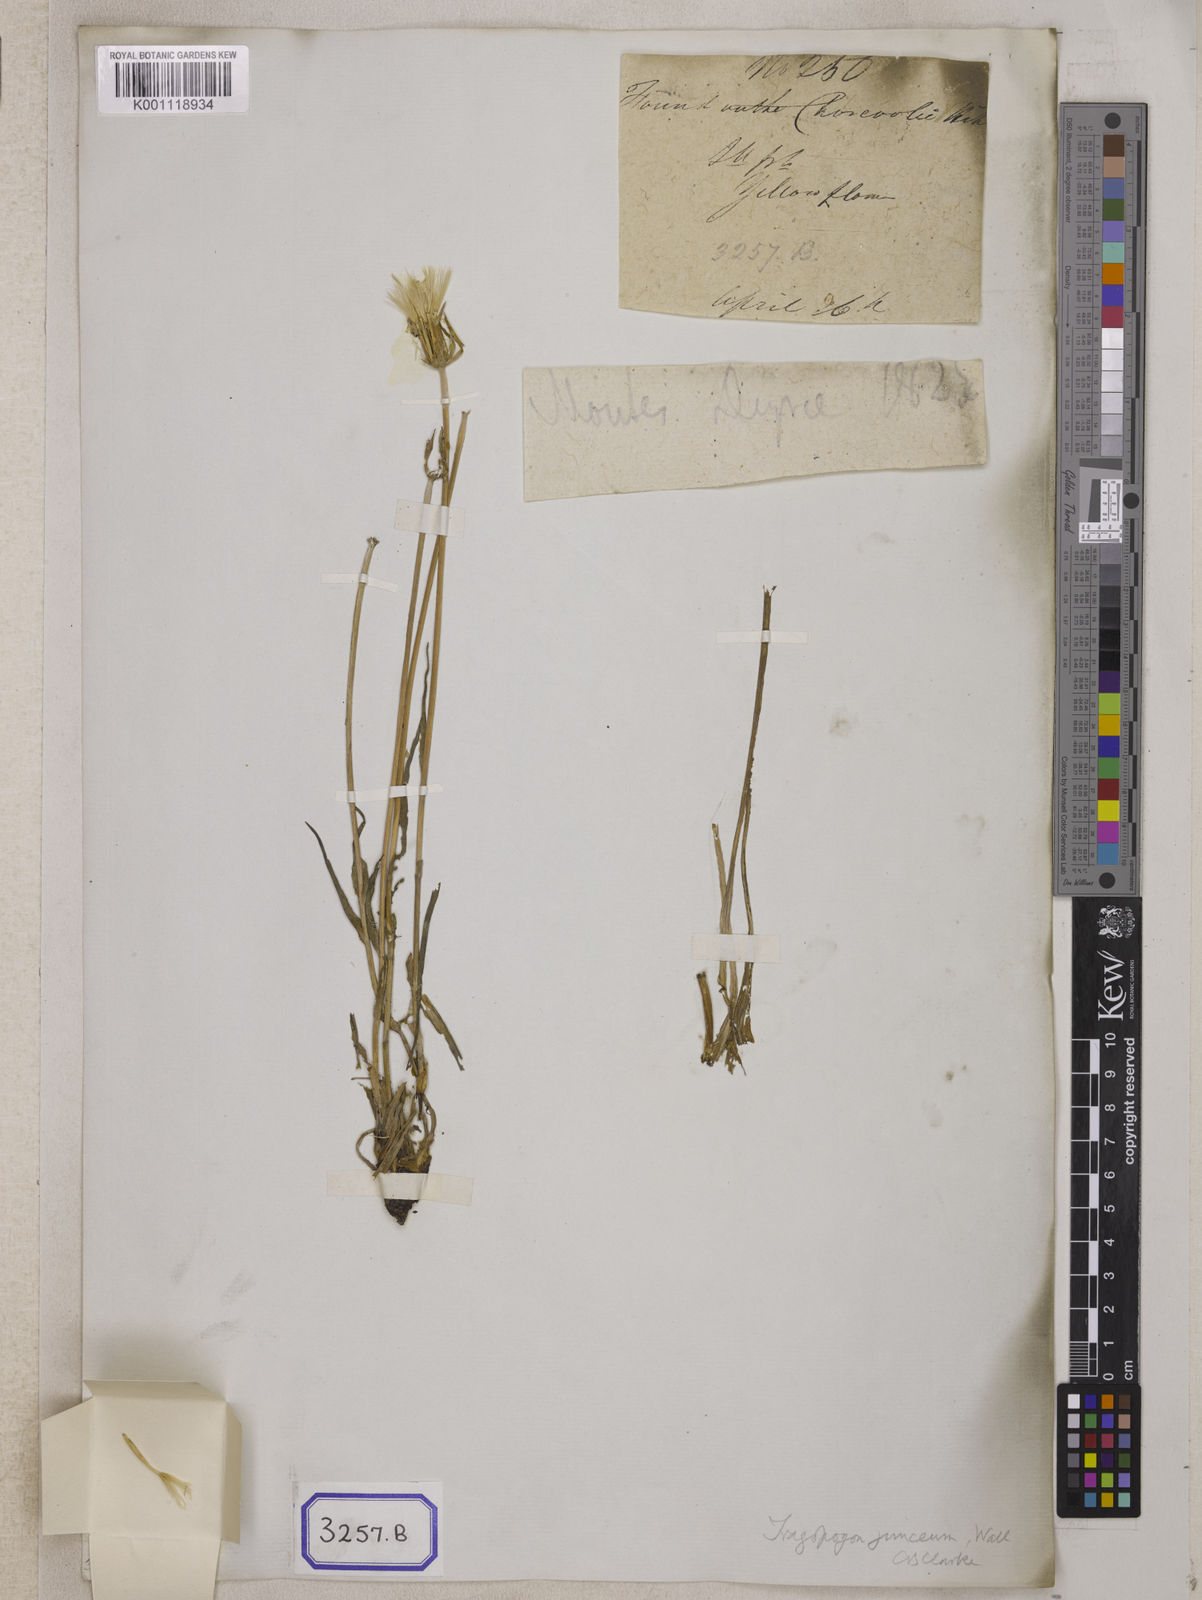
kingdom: Plantae
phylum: Tracheophyta
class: Magnoliopsida
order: Asterales
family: Asteraceae
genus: Tragopogon
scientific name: Tragopogon gracilis
